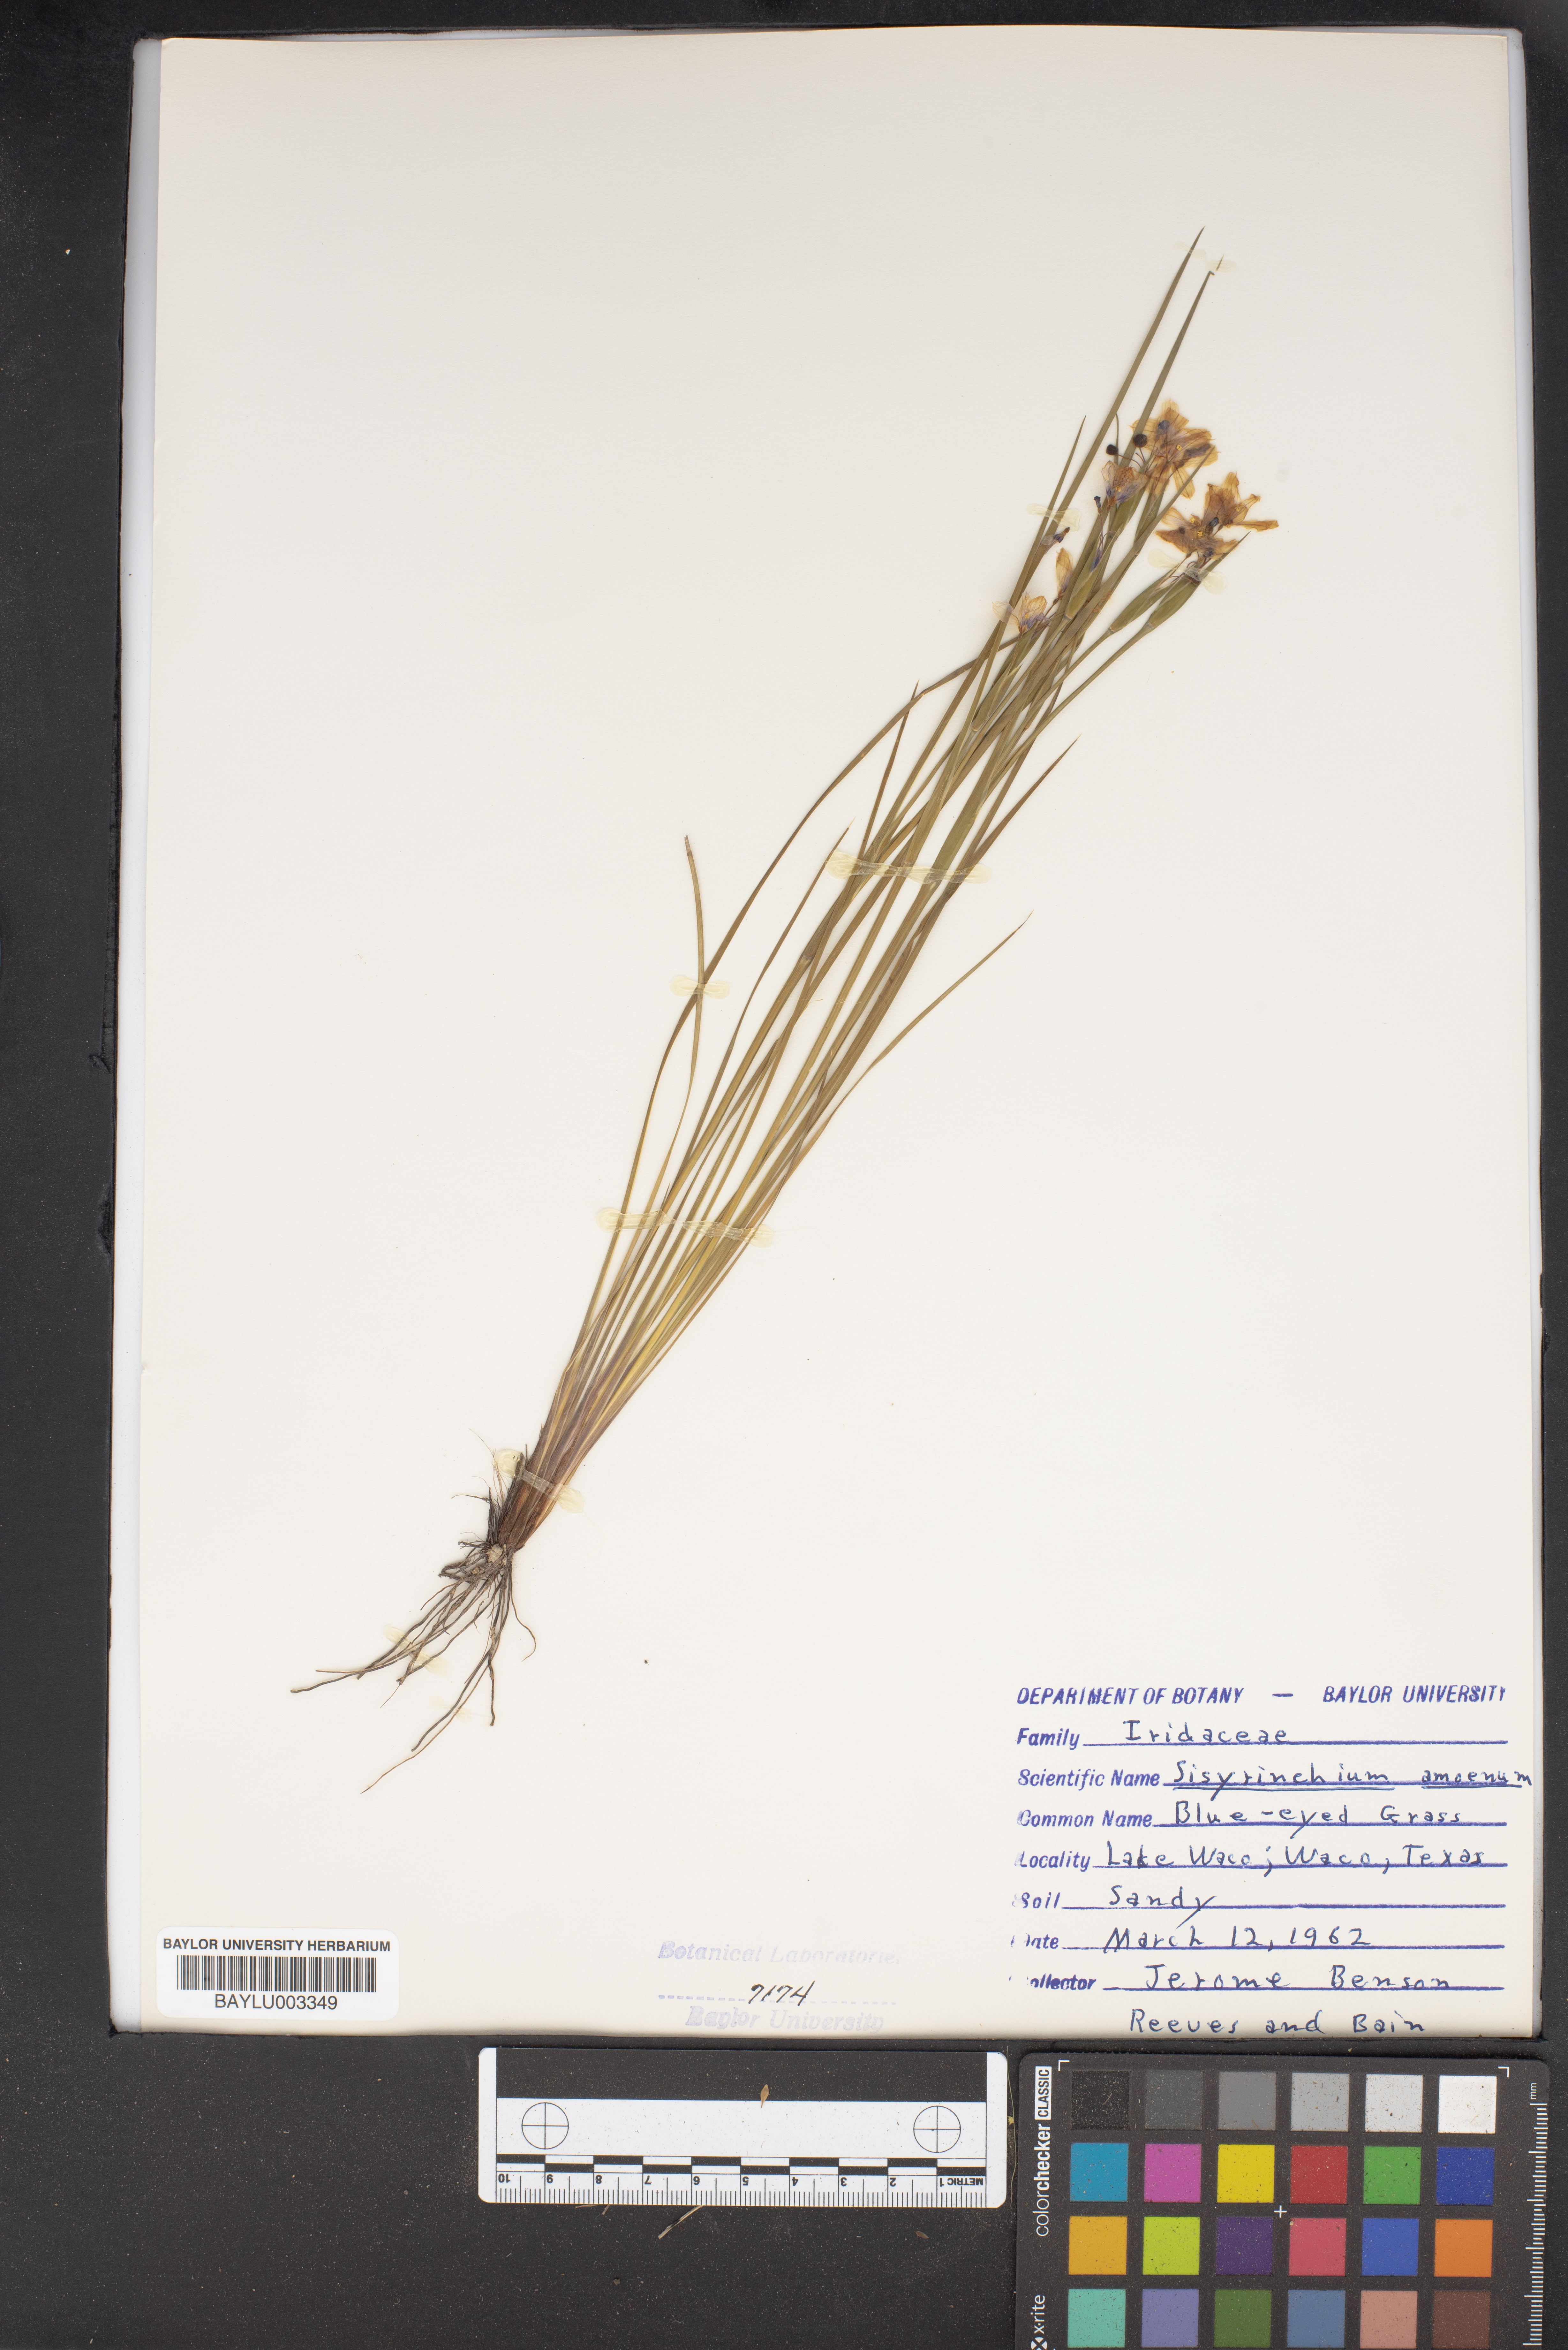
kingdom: Plantae
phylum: Tracheophyta
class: Liliopsida
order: Asparagales
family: Iridaceae
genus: Sisyrinchium
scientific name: Sisyrinchium ensigerum
